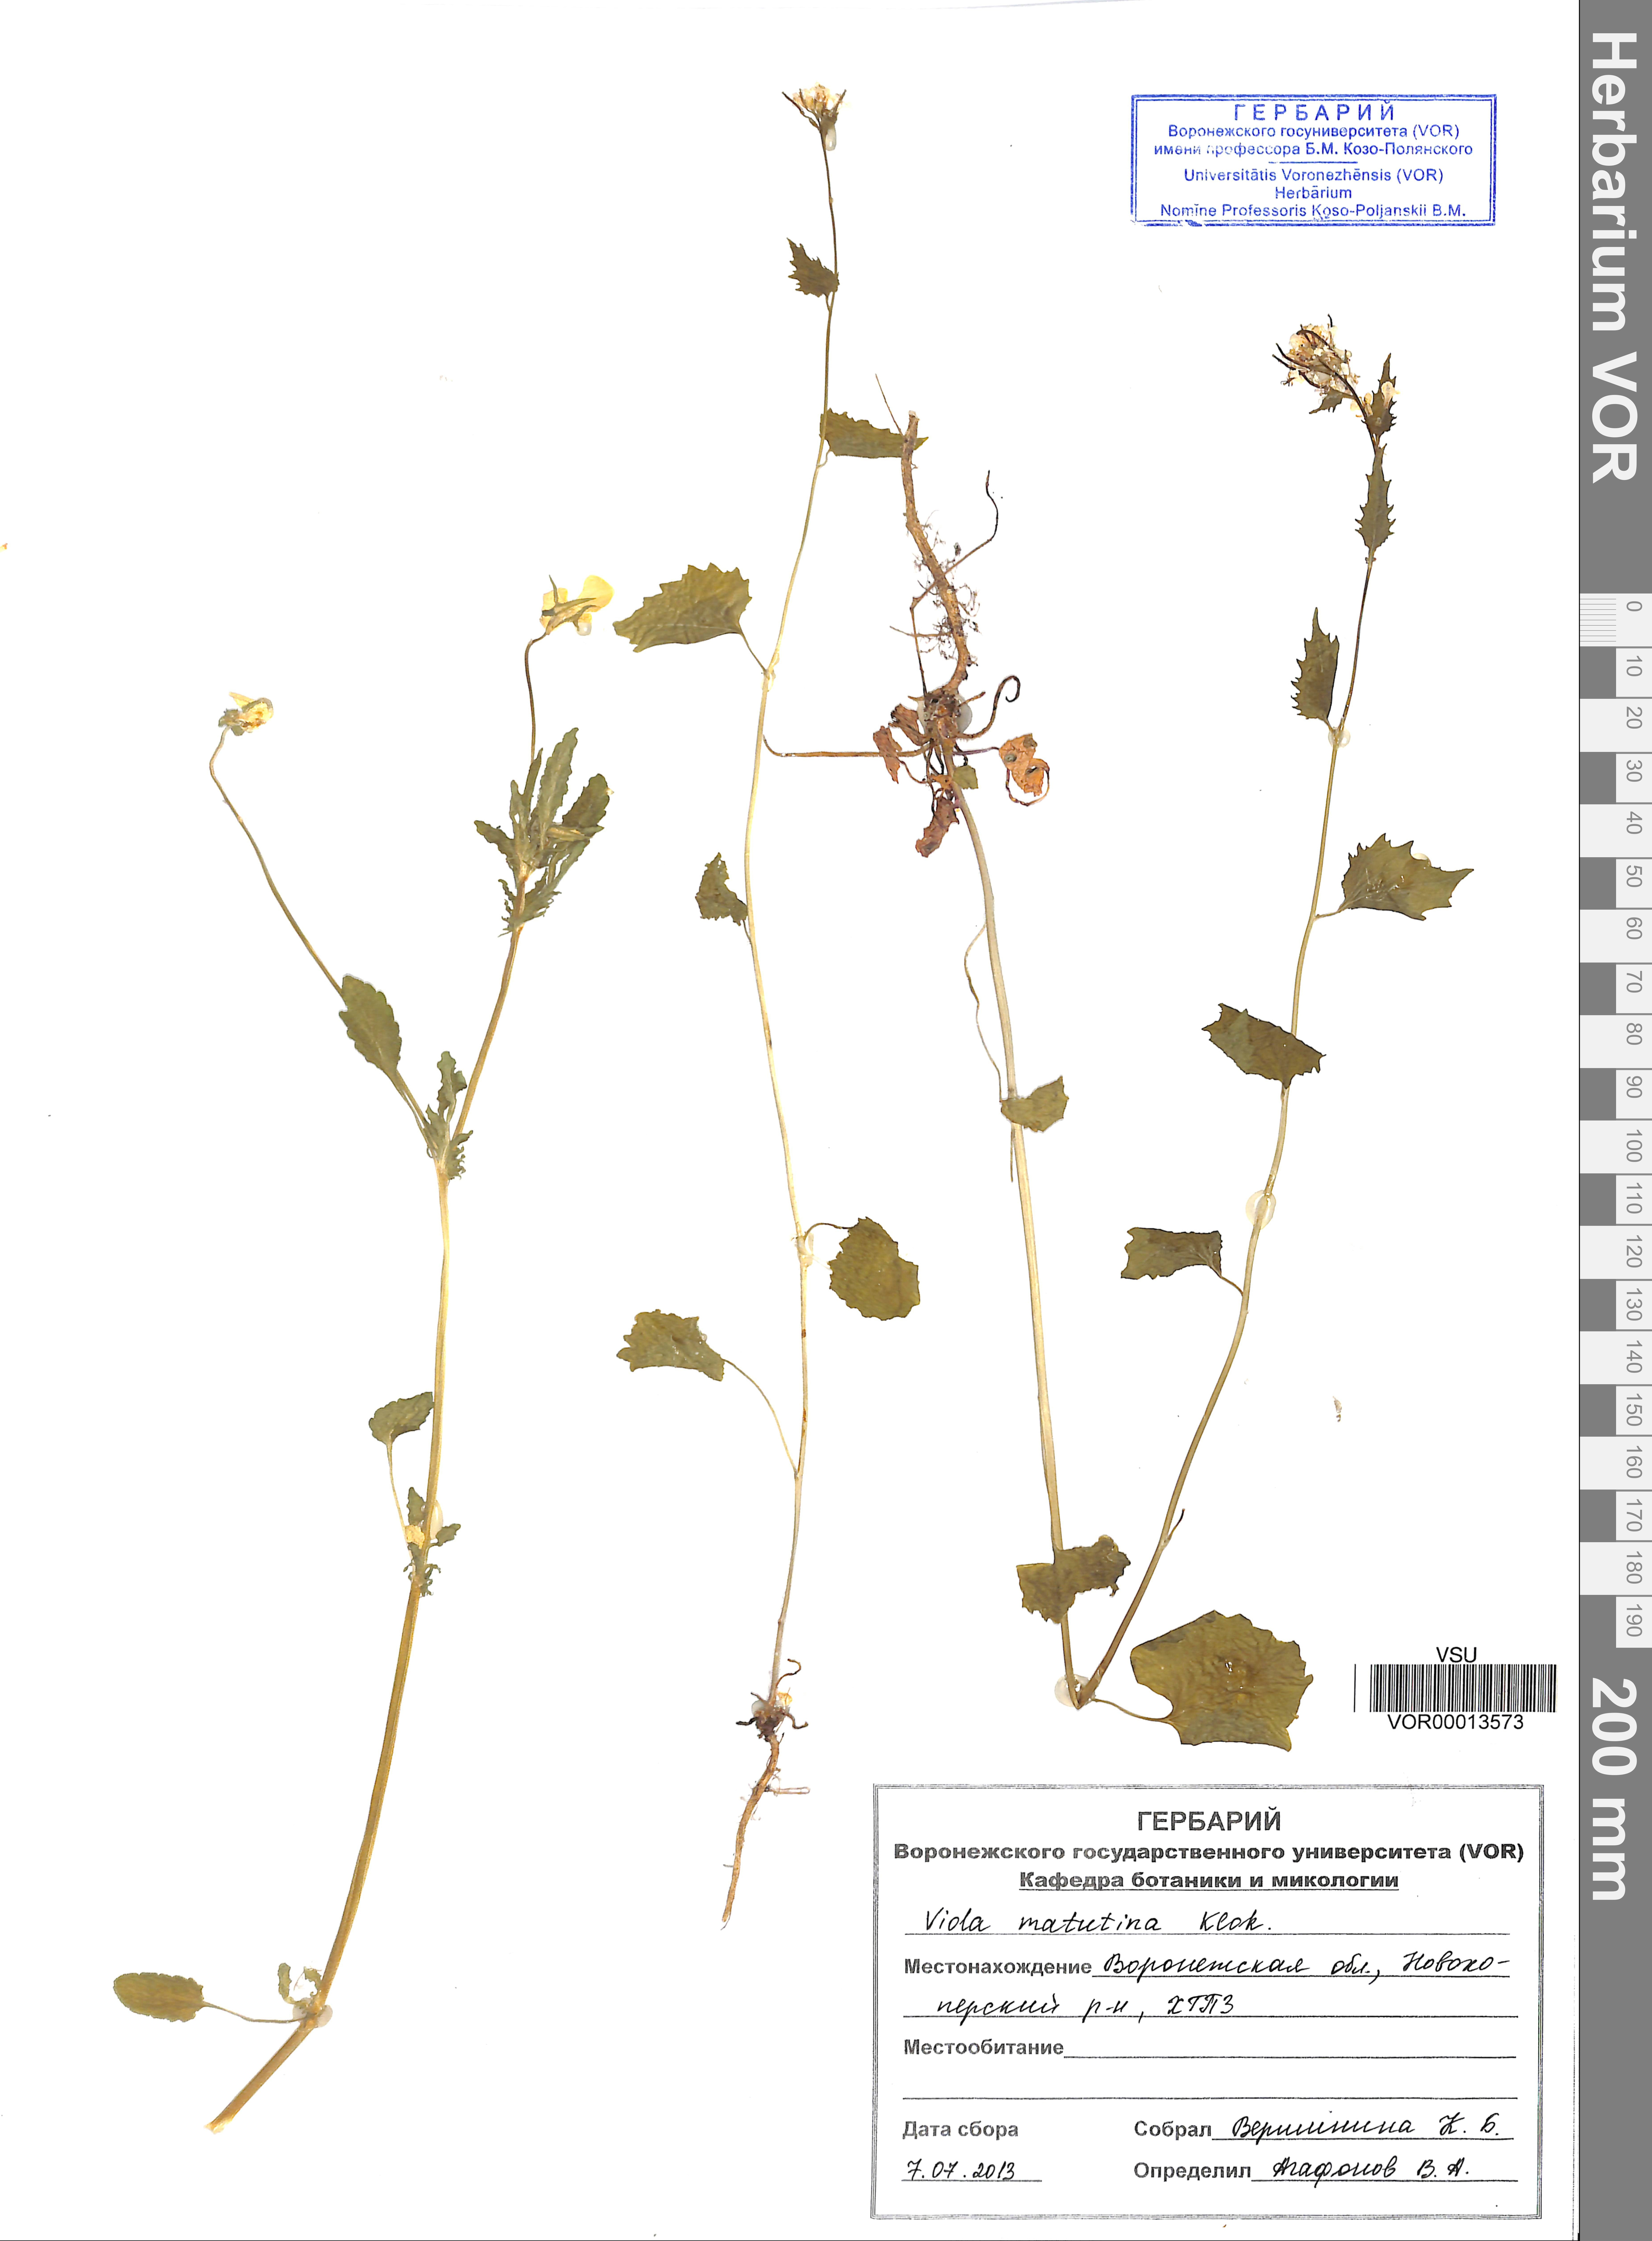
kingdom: Plantae
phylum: Tracheophyta
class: Magnoliopsida
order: Malpighiales
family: Violaceae
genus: Viola
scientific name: Viola tricolor
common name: Pansy
